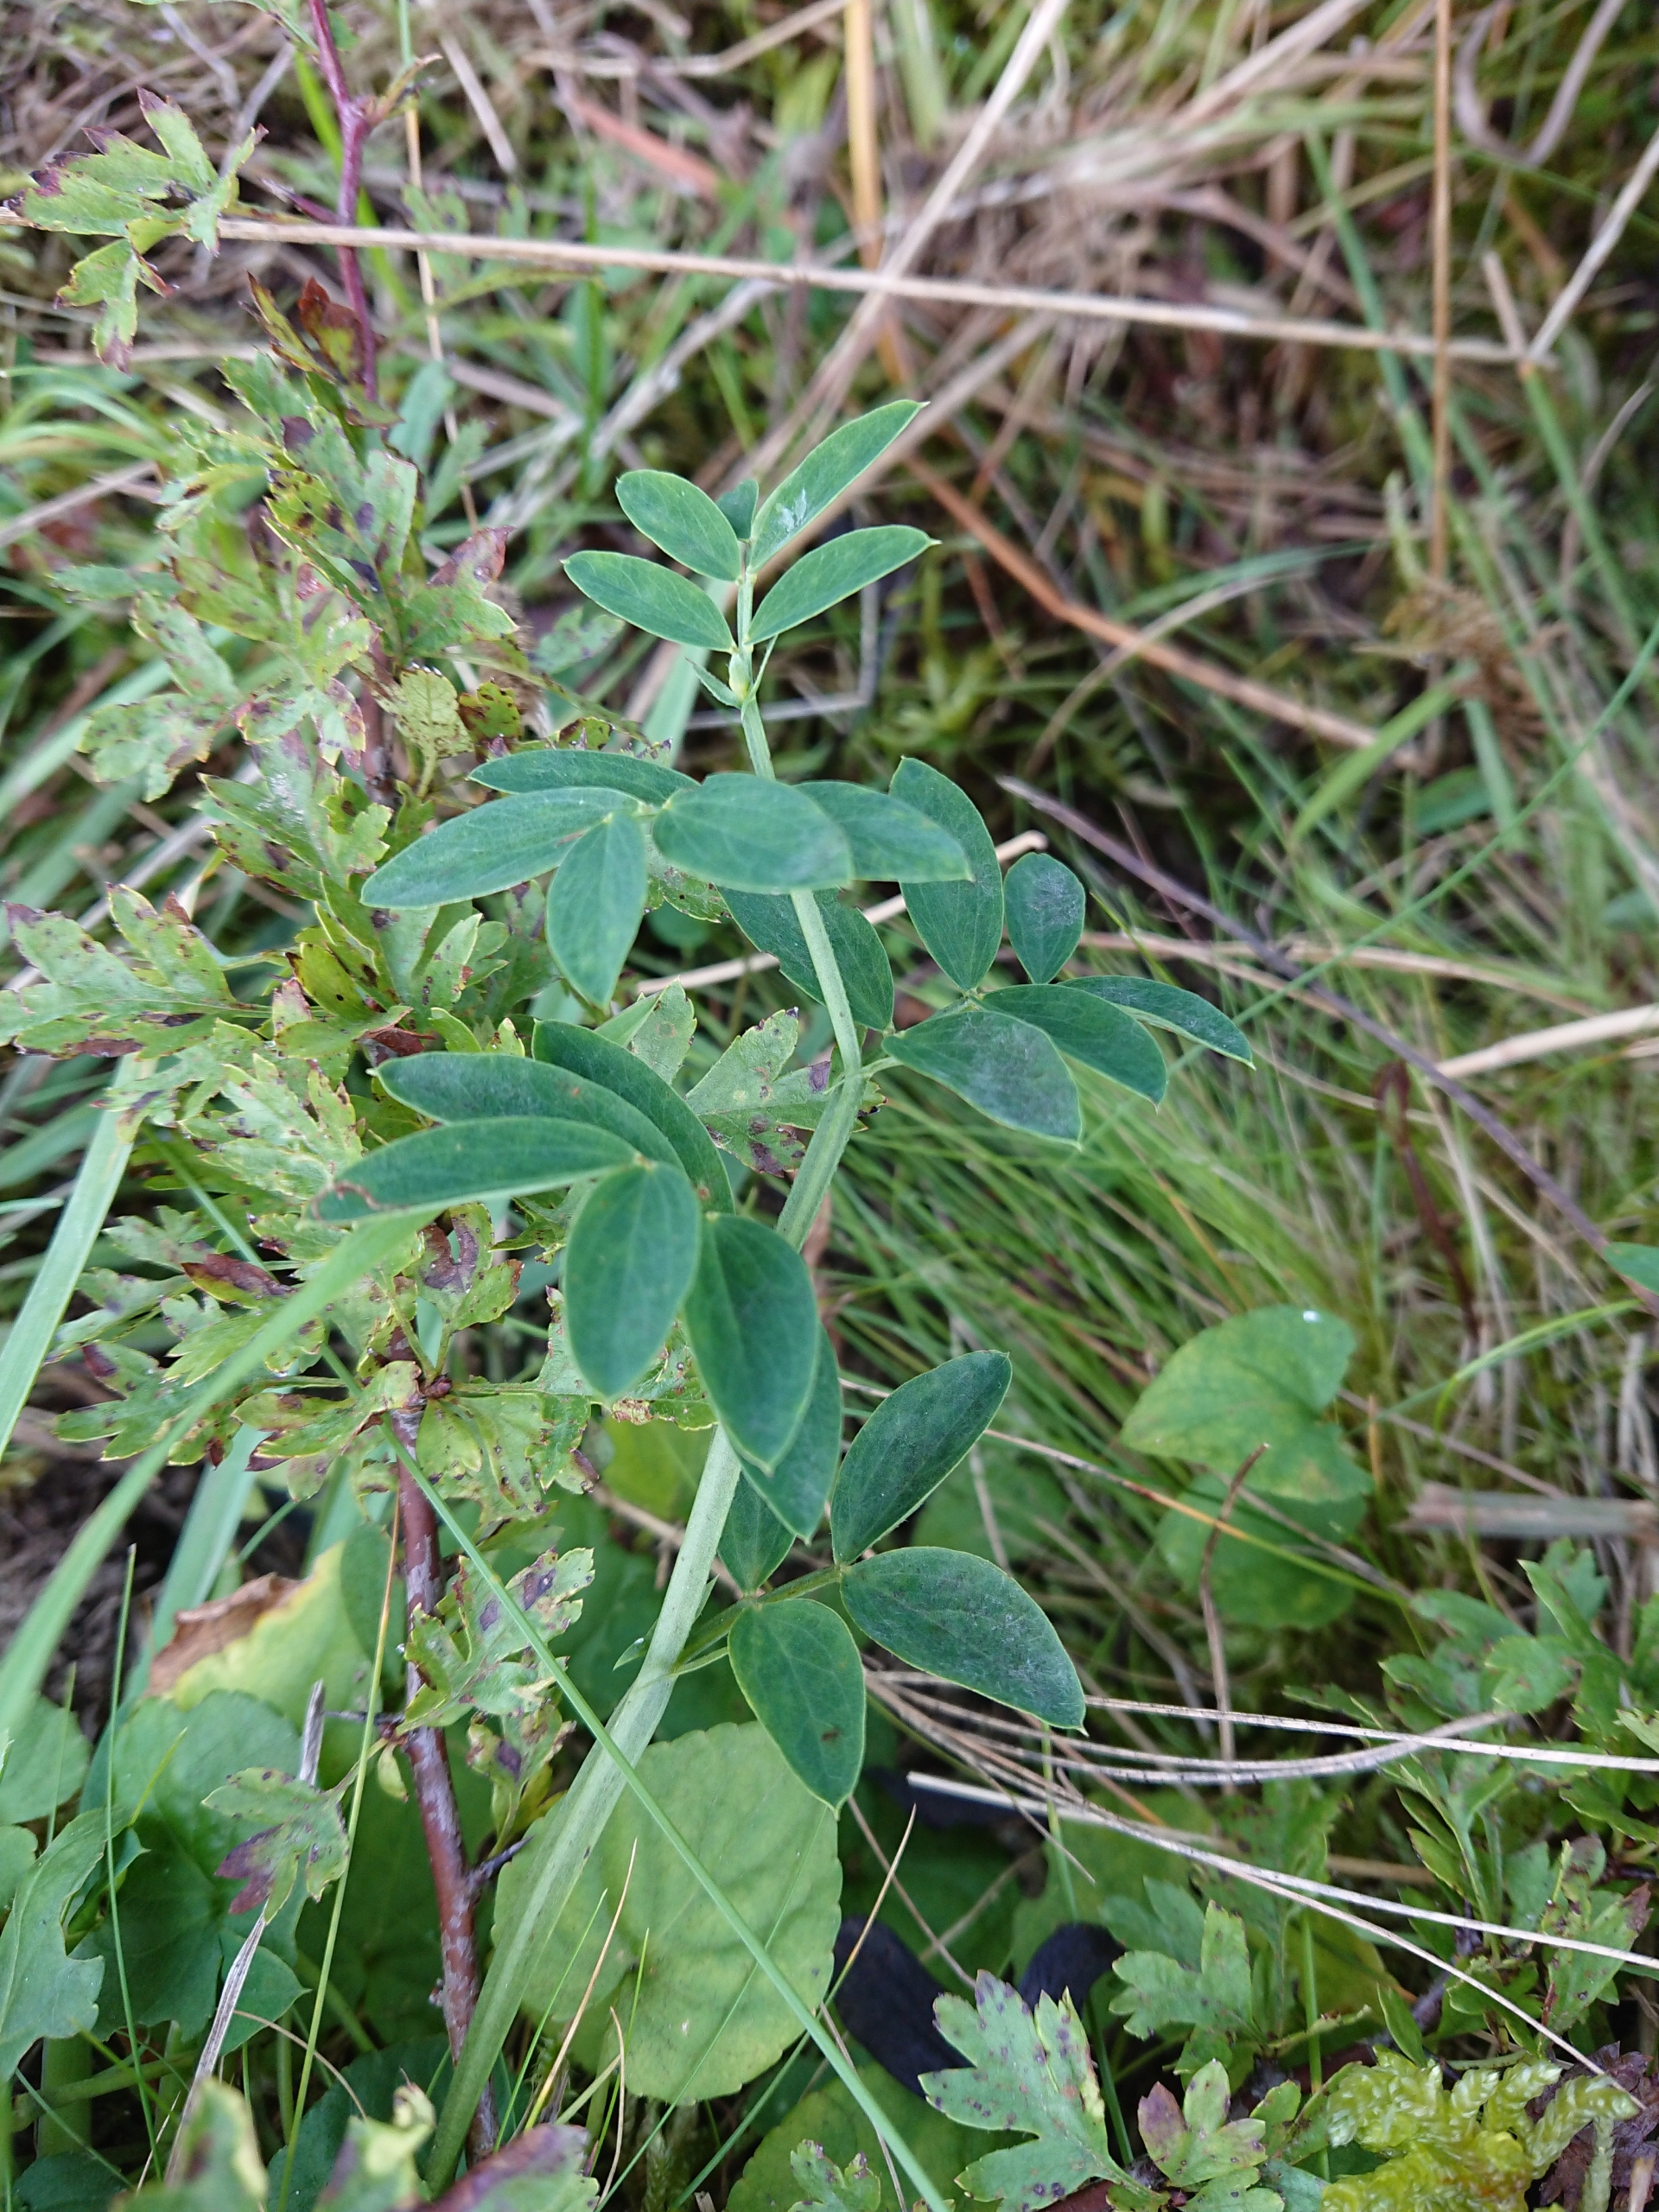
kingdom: Plantae
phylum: Tracheophyta
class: Magnoliopsida
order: Fabales
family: Fabaceae
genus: Lathyrus
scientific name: Lathyrus linifolius
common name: Krat-fladbælg
